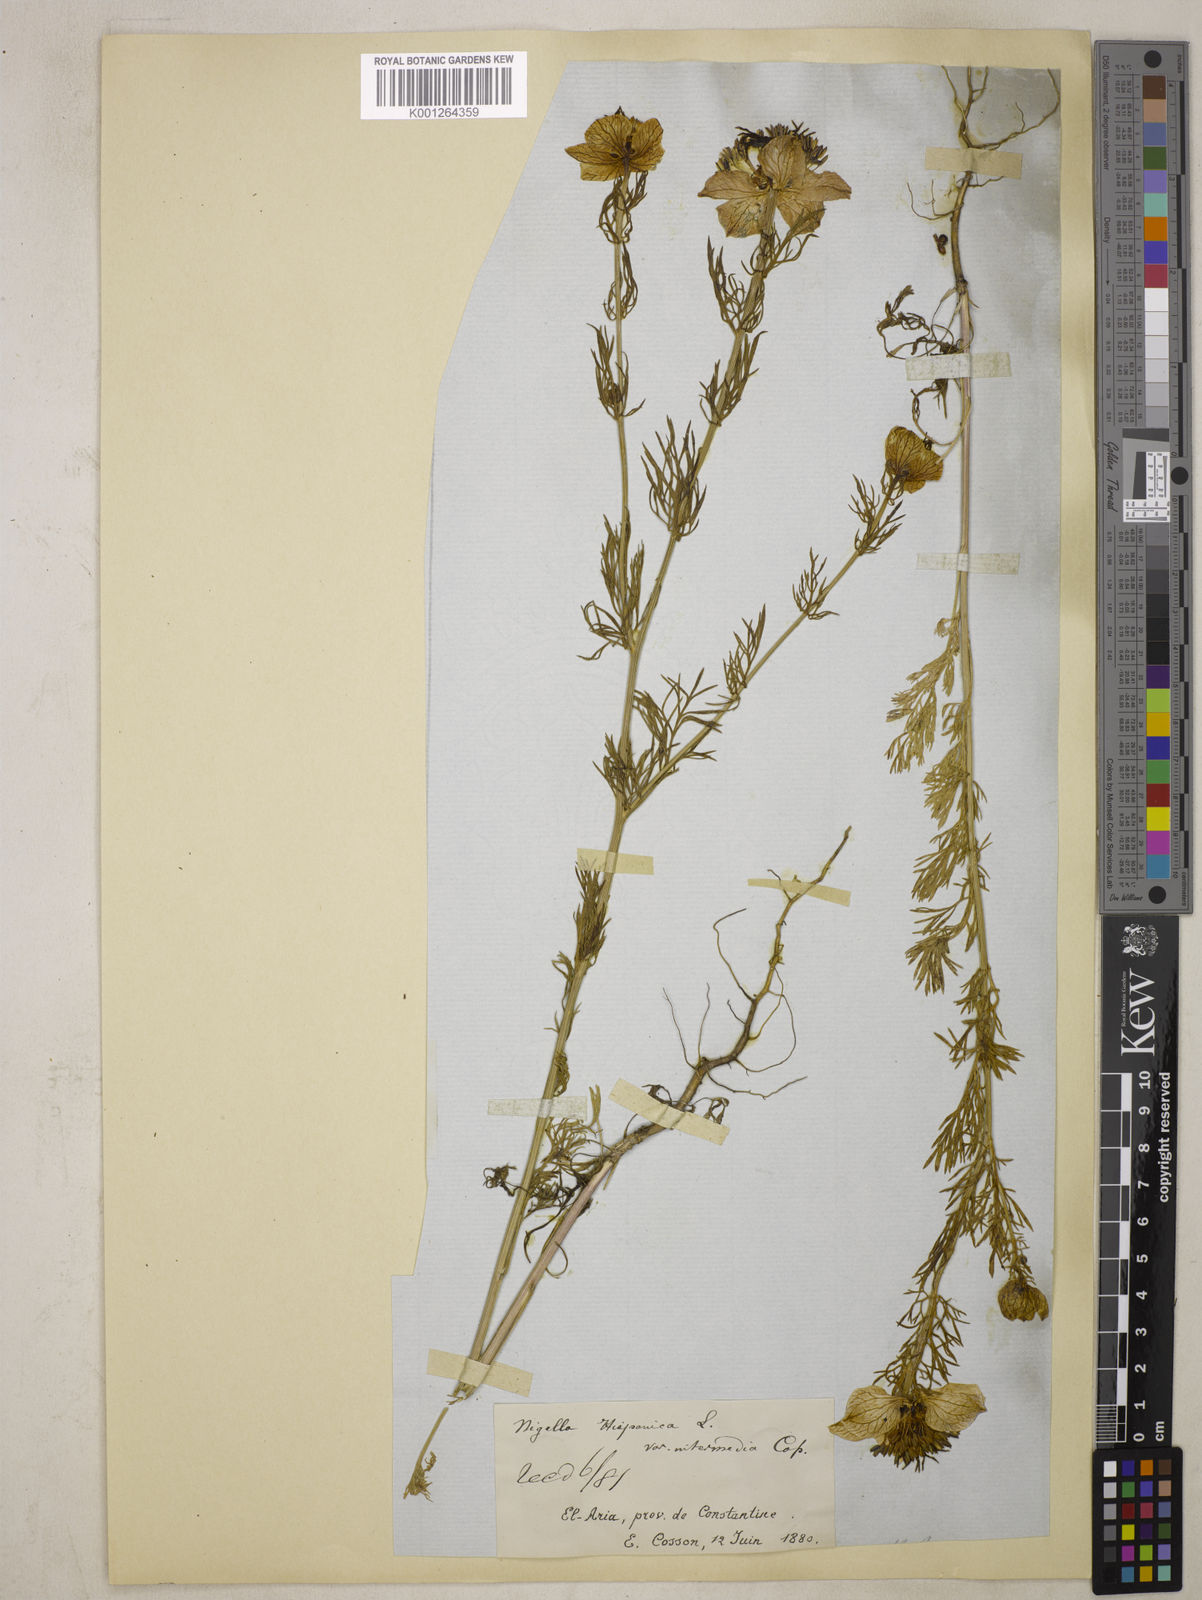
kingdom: Plantae
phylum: Tracheophyta
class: Magnoliopsida
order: Ranunculales
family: Ranunculaceae
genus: Nigella
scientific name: Nigella hispanica
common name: Fennel-flower
